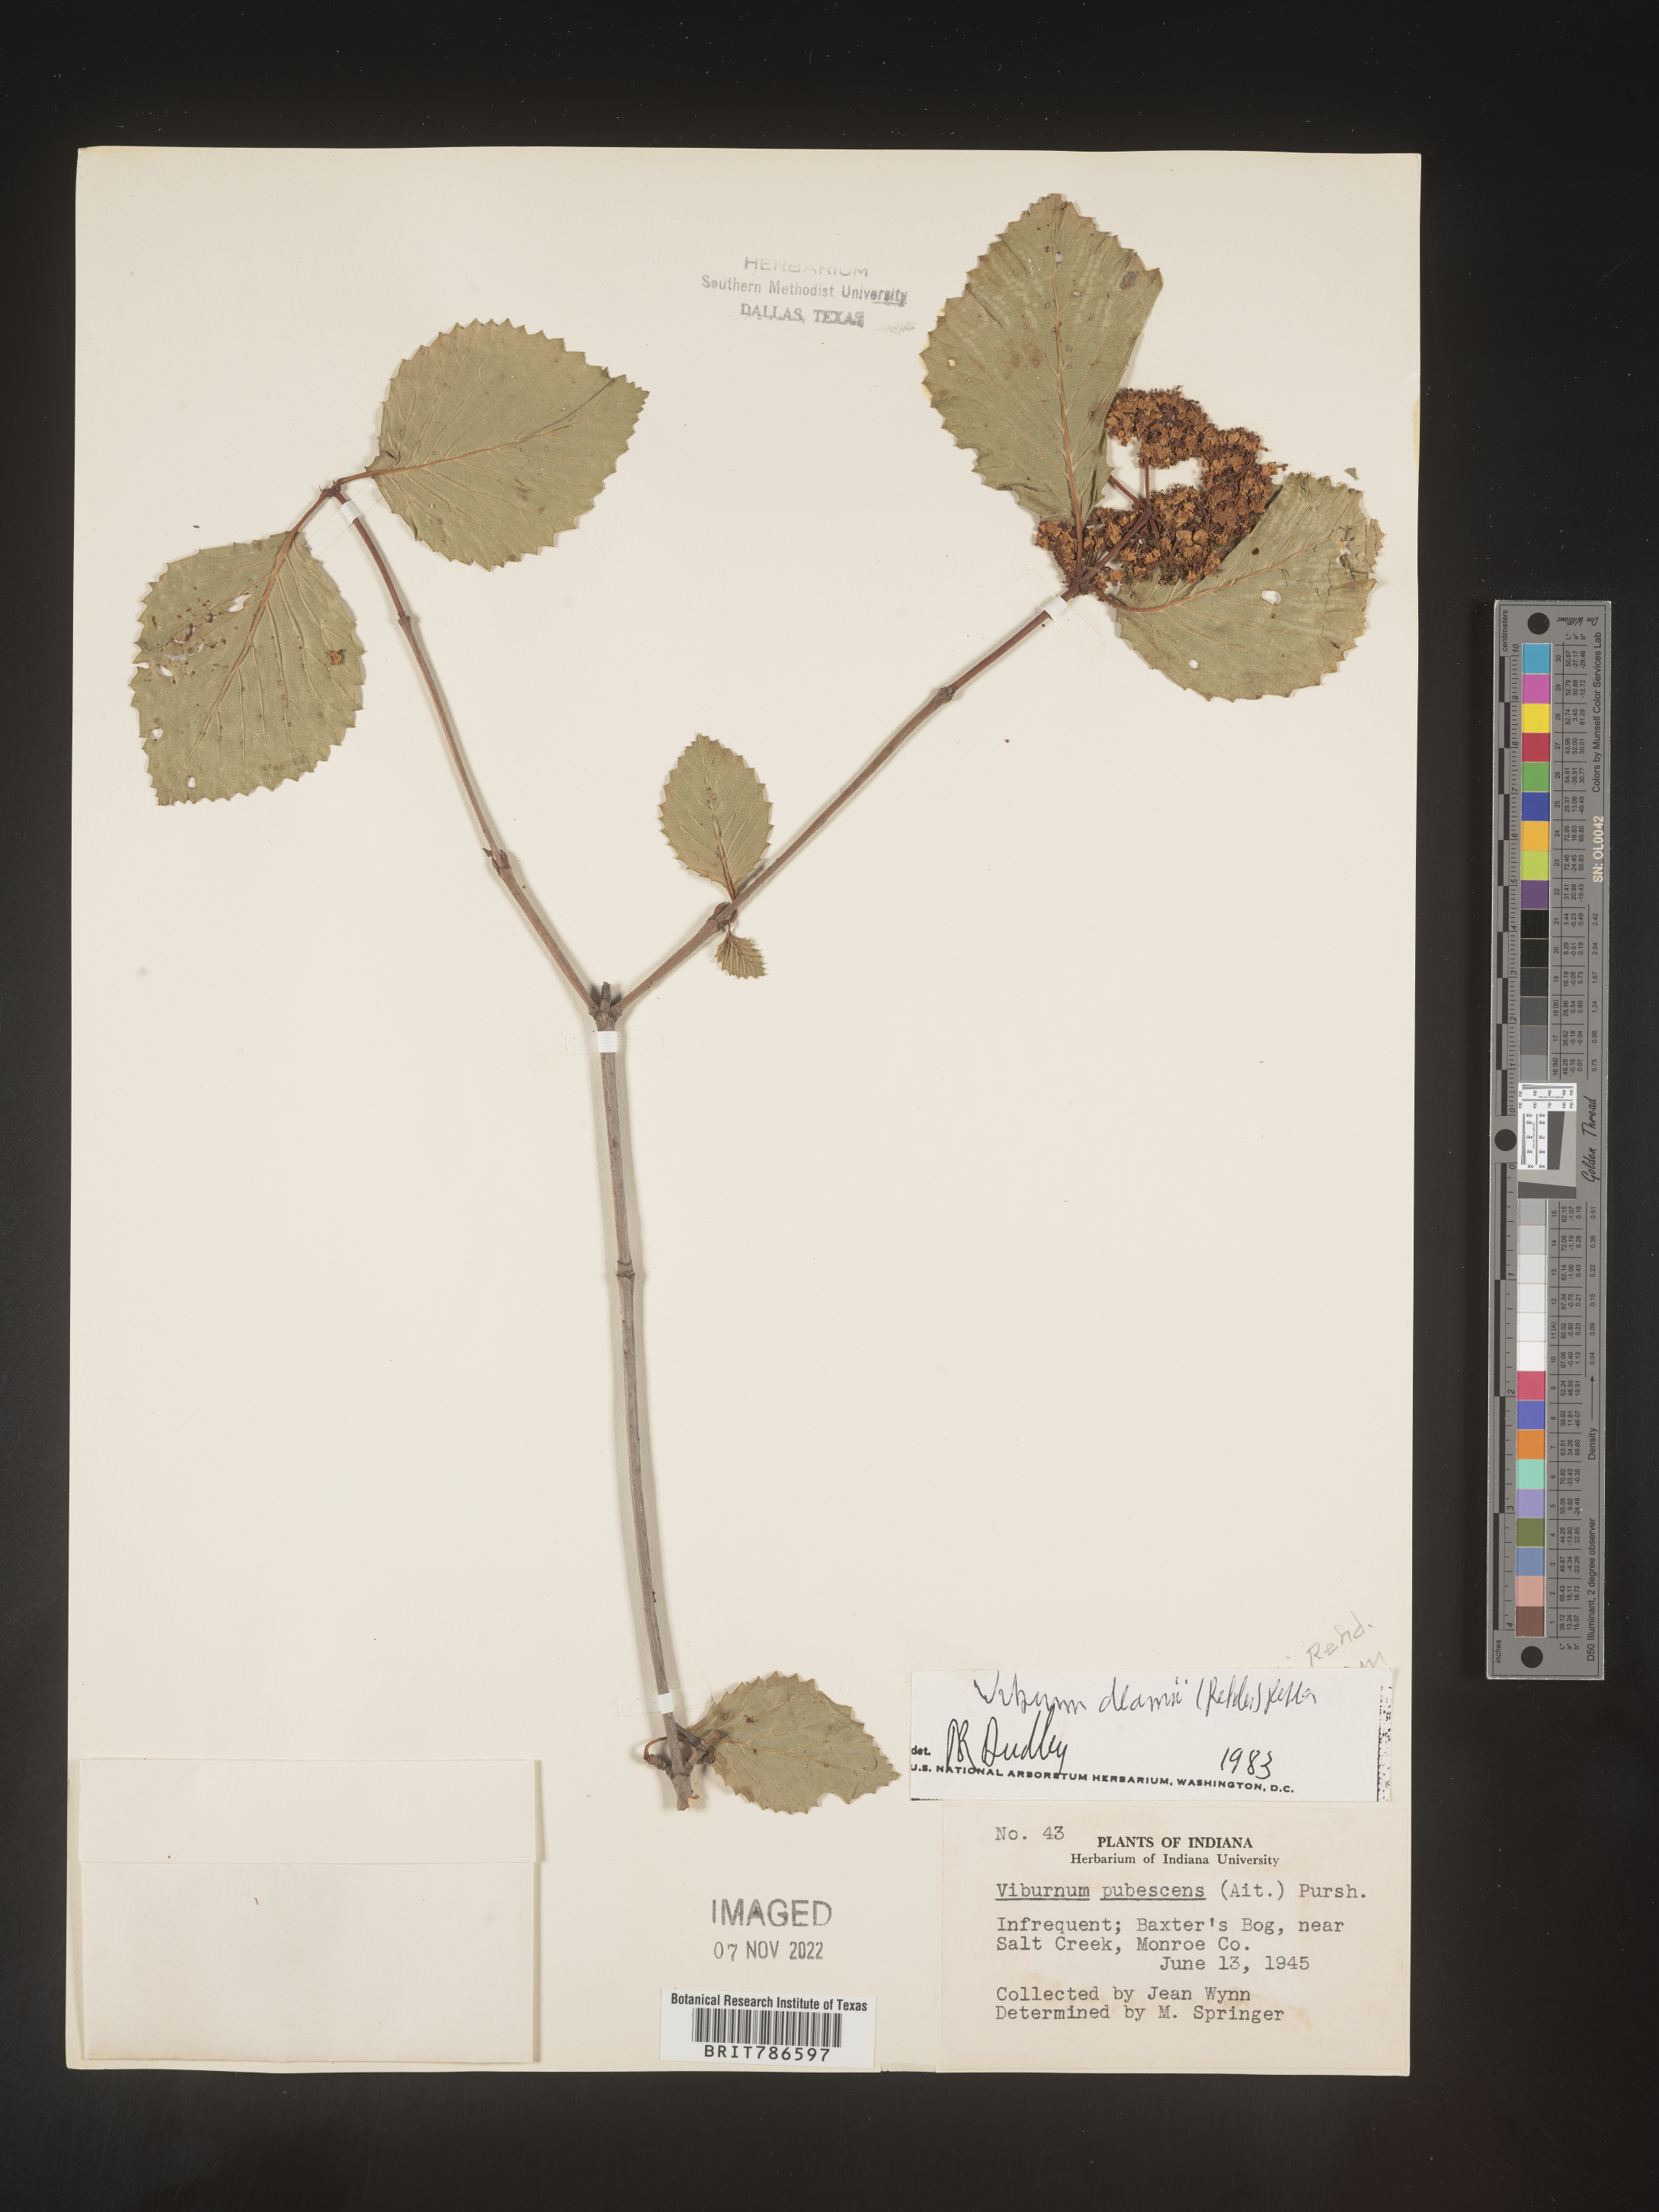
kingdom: Plantae
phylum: Tracheophyta
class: Magnoliopsida
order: Dipsacales
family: Viburnaceae
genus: Viburnum
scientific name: Viburnum deamii
